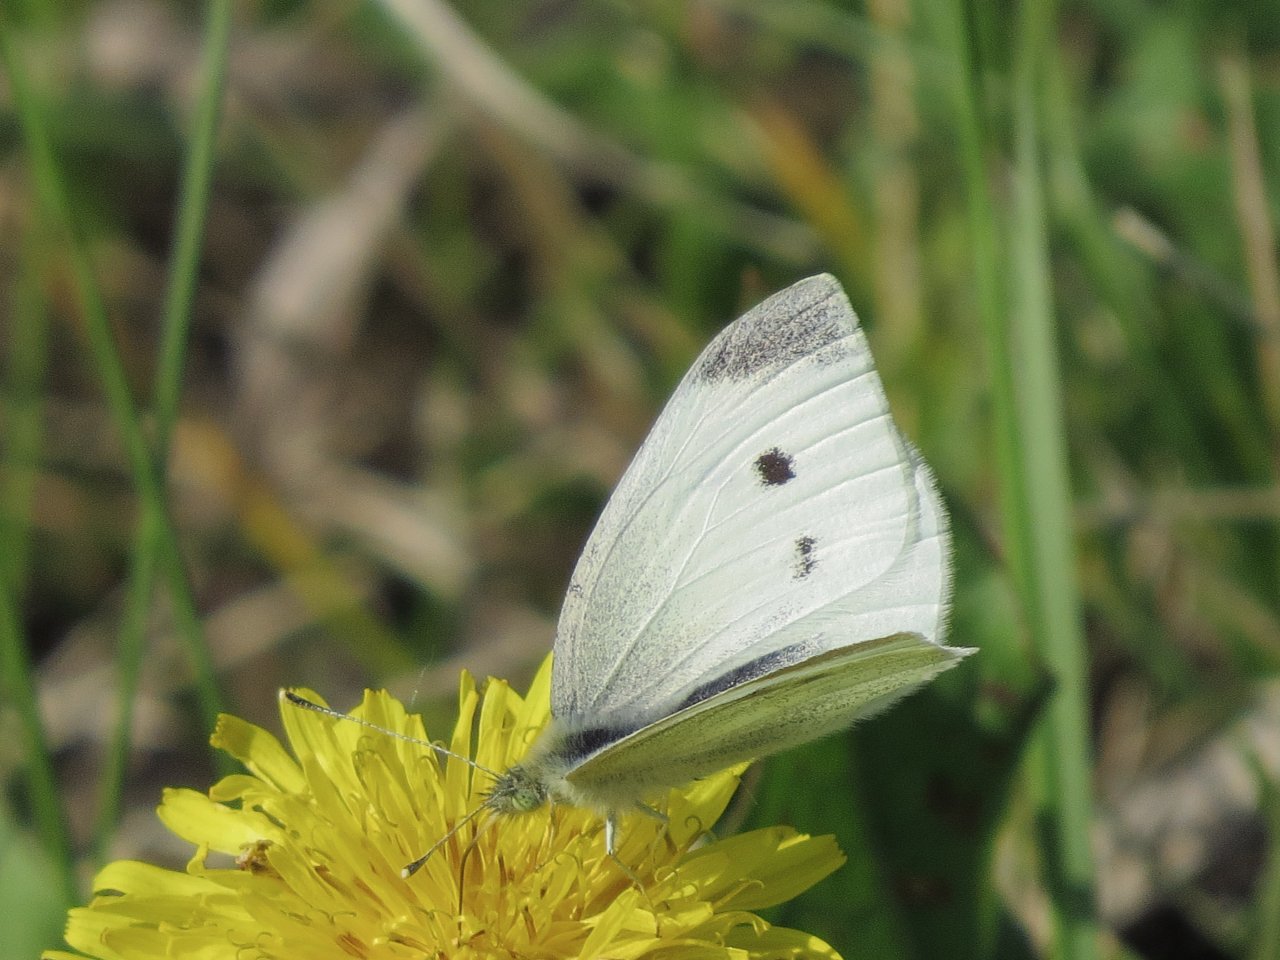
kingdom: Animalia
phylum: Arthropoda
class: Insecta
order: Lepidoptera
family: Pieridae
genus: Pieris
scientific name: Pieris rapae
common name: Cabbage White
